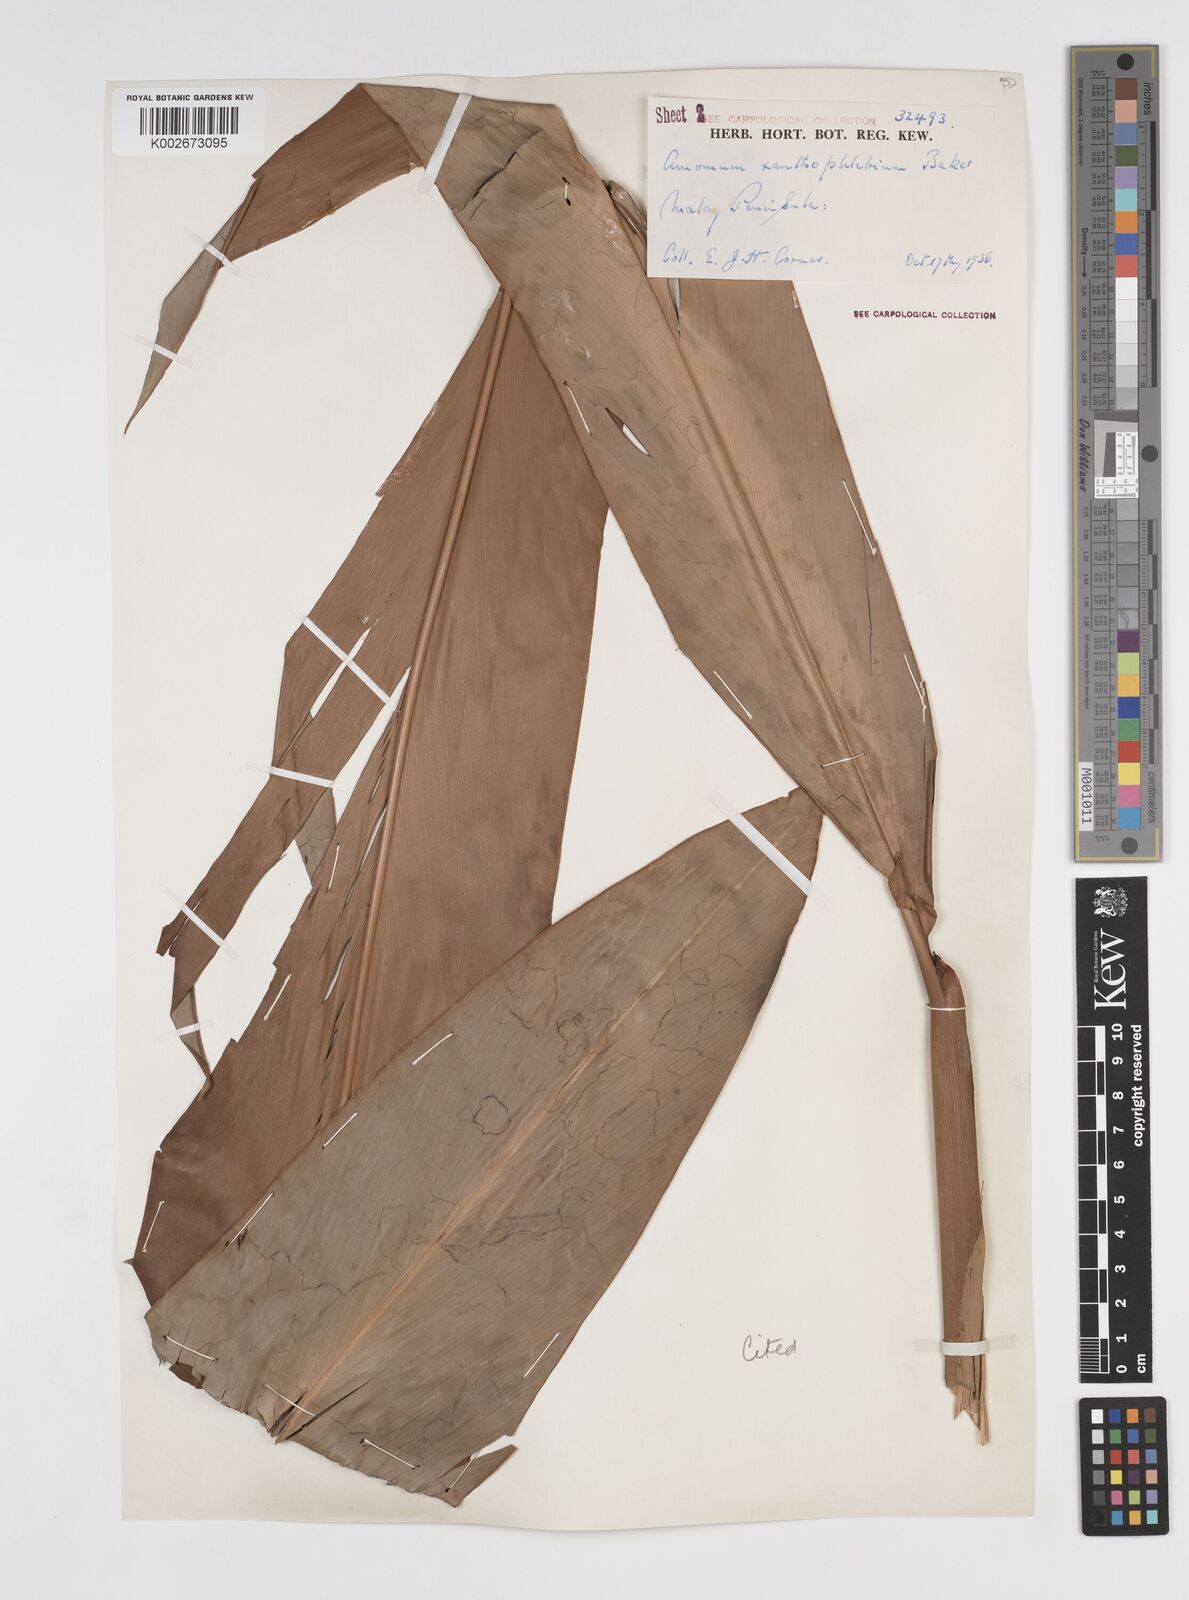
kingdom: Plantae
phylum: Tracheophyta
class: Liliopsida
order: Zingiberales
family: Zingiberaceae
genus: Conamomum
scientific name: Conamomum xanthophlebium
